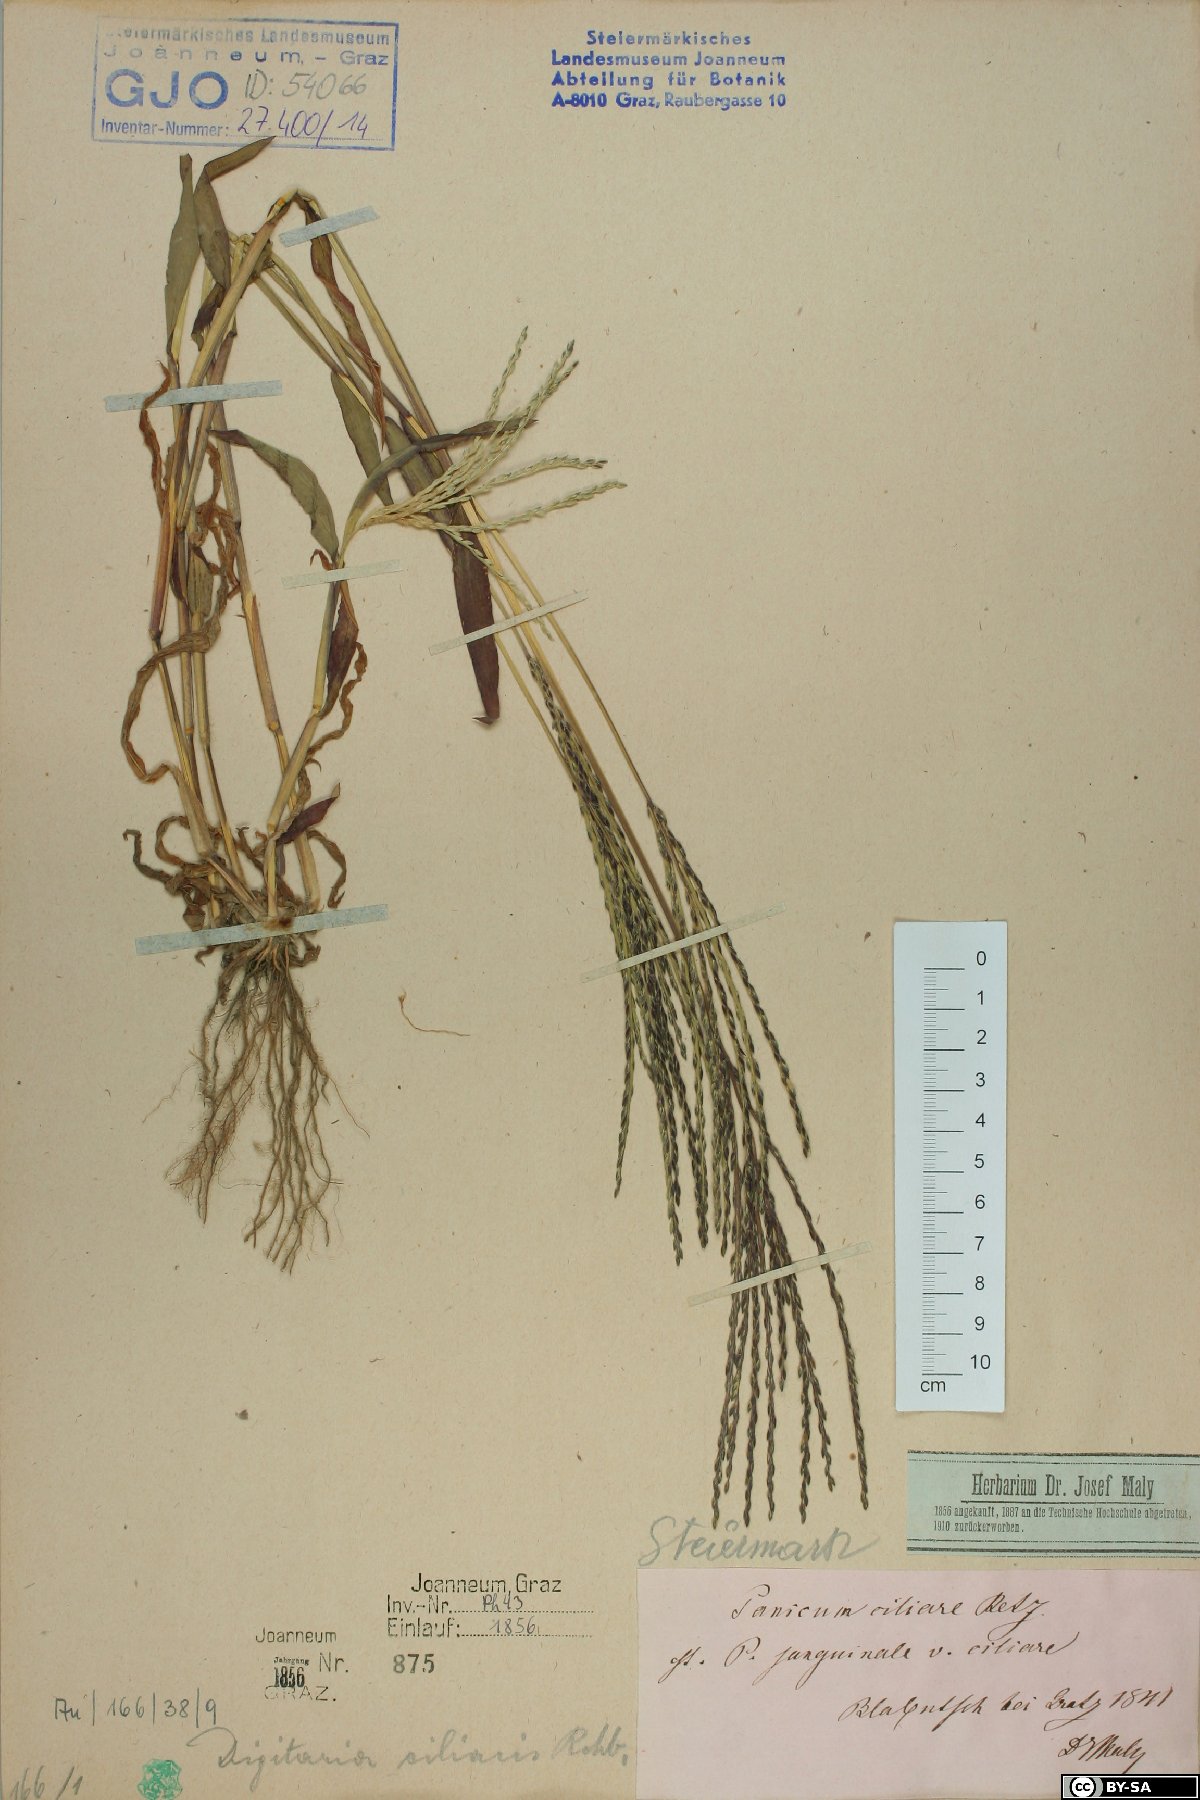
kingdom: Plantae
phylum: Tracheophyta
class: Liliopsida
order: Poales
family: Poaceae
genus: Digitaria
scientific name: Digitaria ciliaris
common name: Tropical finger-grass
